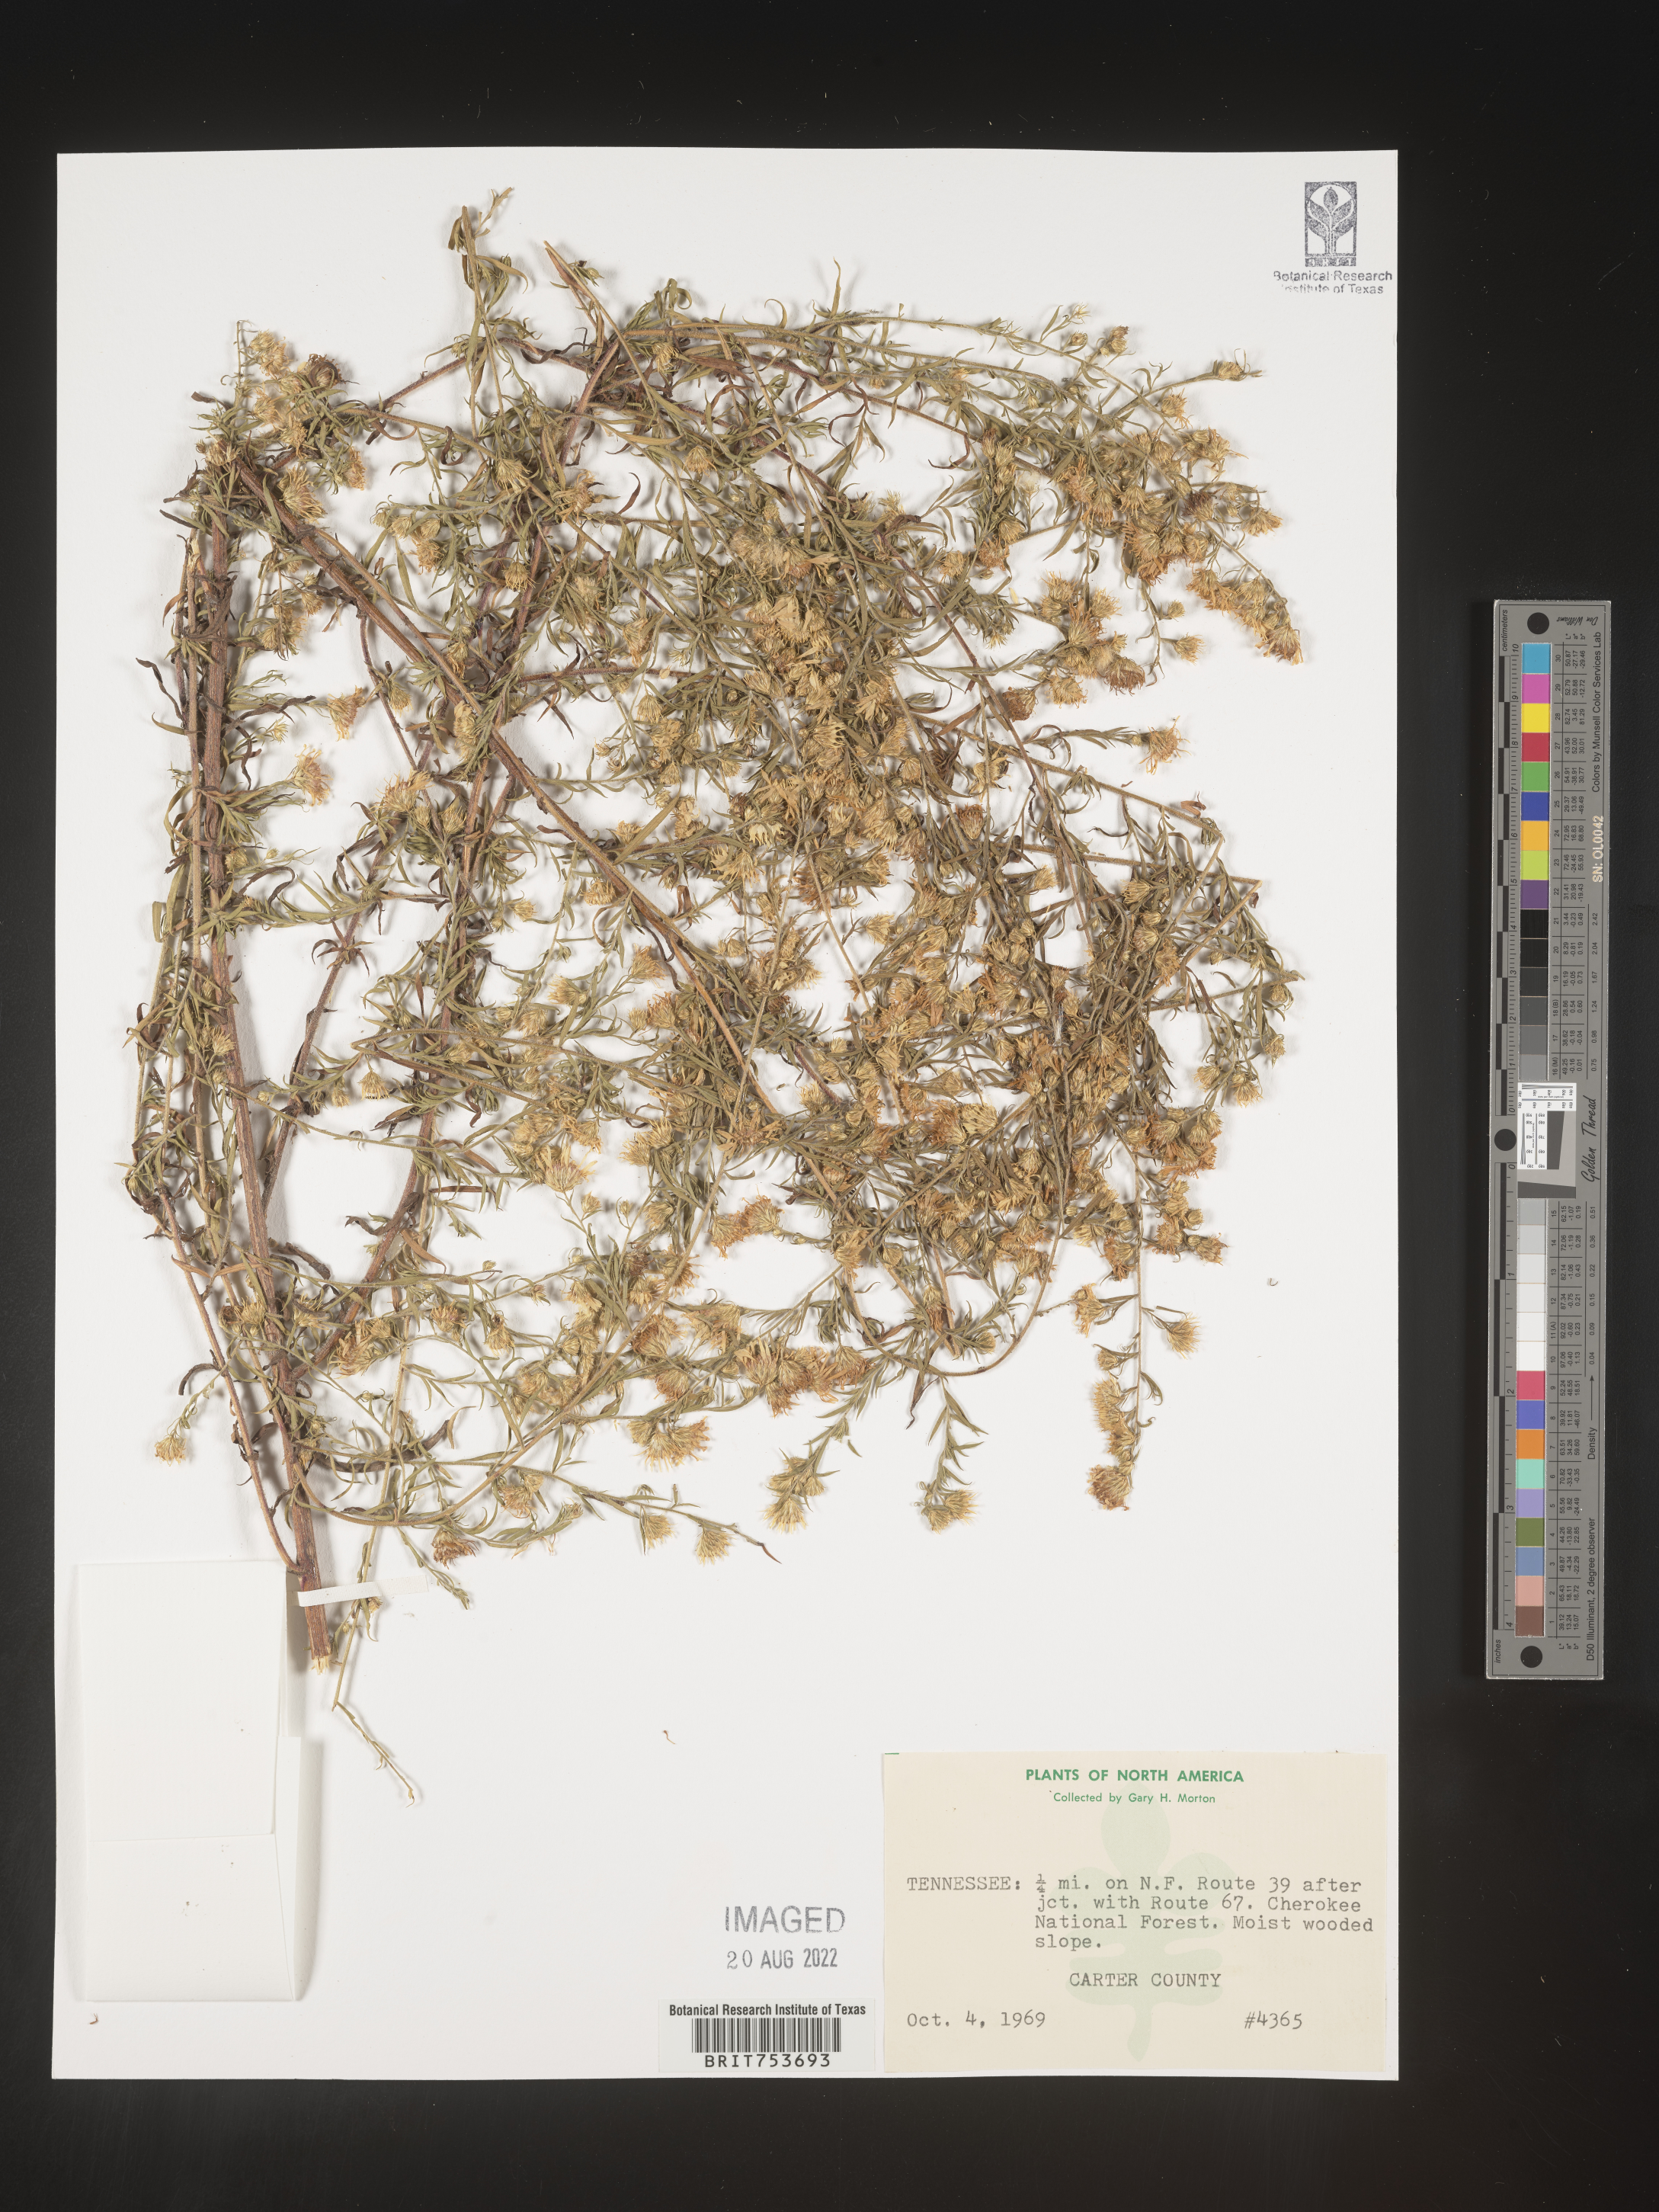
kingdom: Plantae
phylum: Tracheophyta
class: Magnoliopsida
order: Asterales
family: Asteraceae
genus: Symphyotrichum
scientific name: Symphyotrichum pilosum
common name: Awl aster
